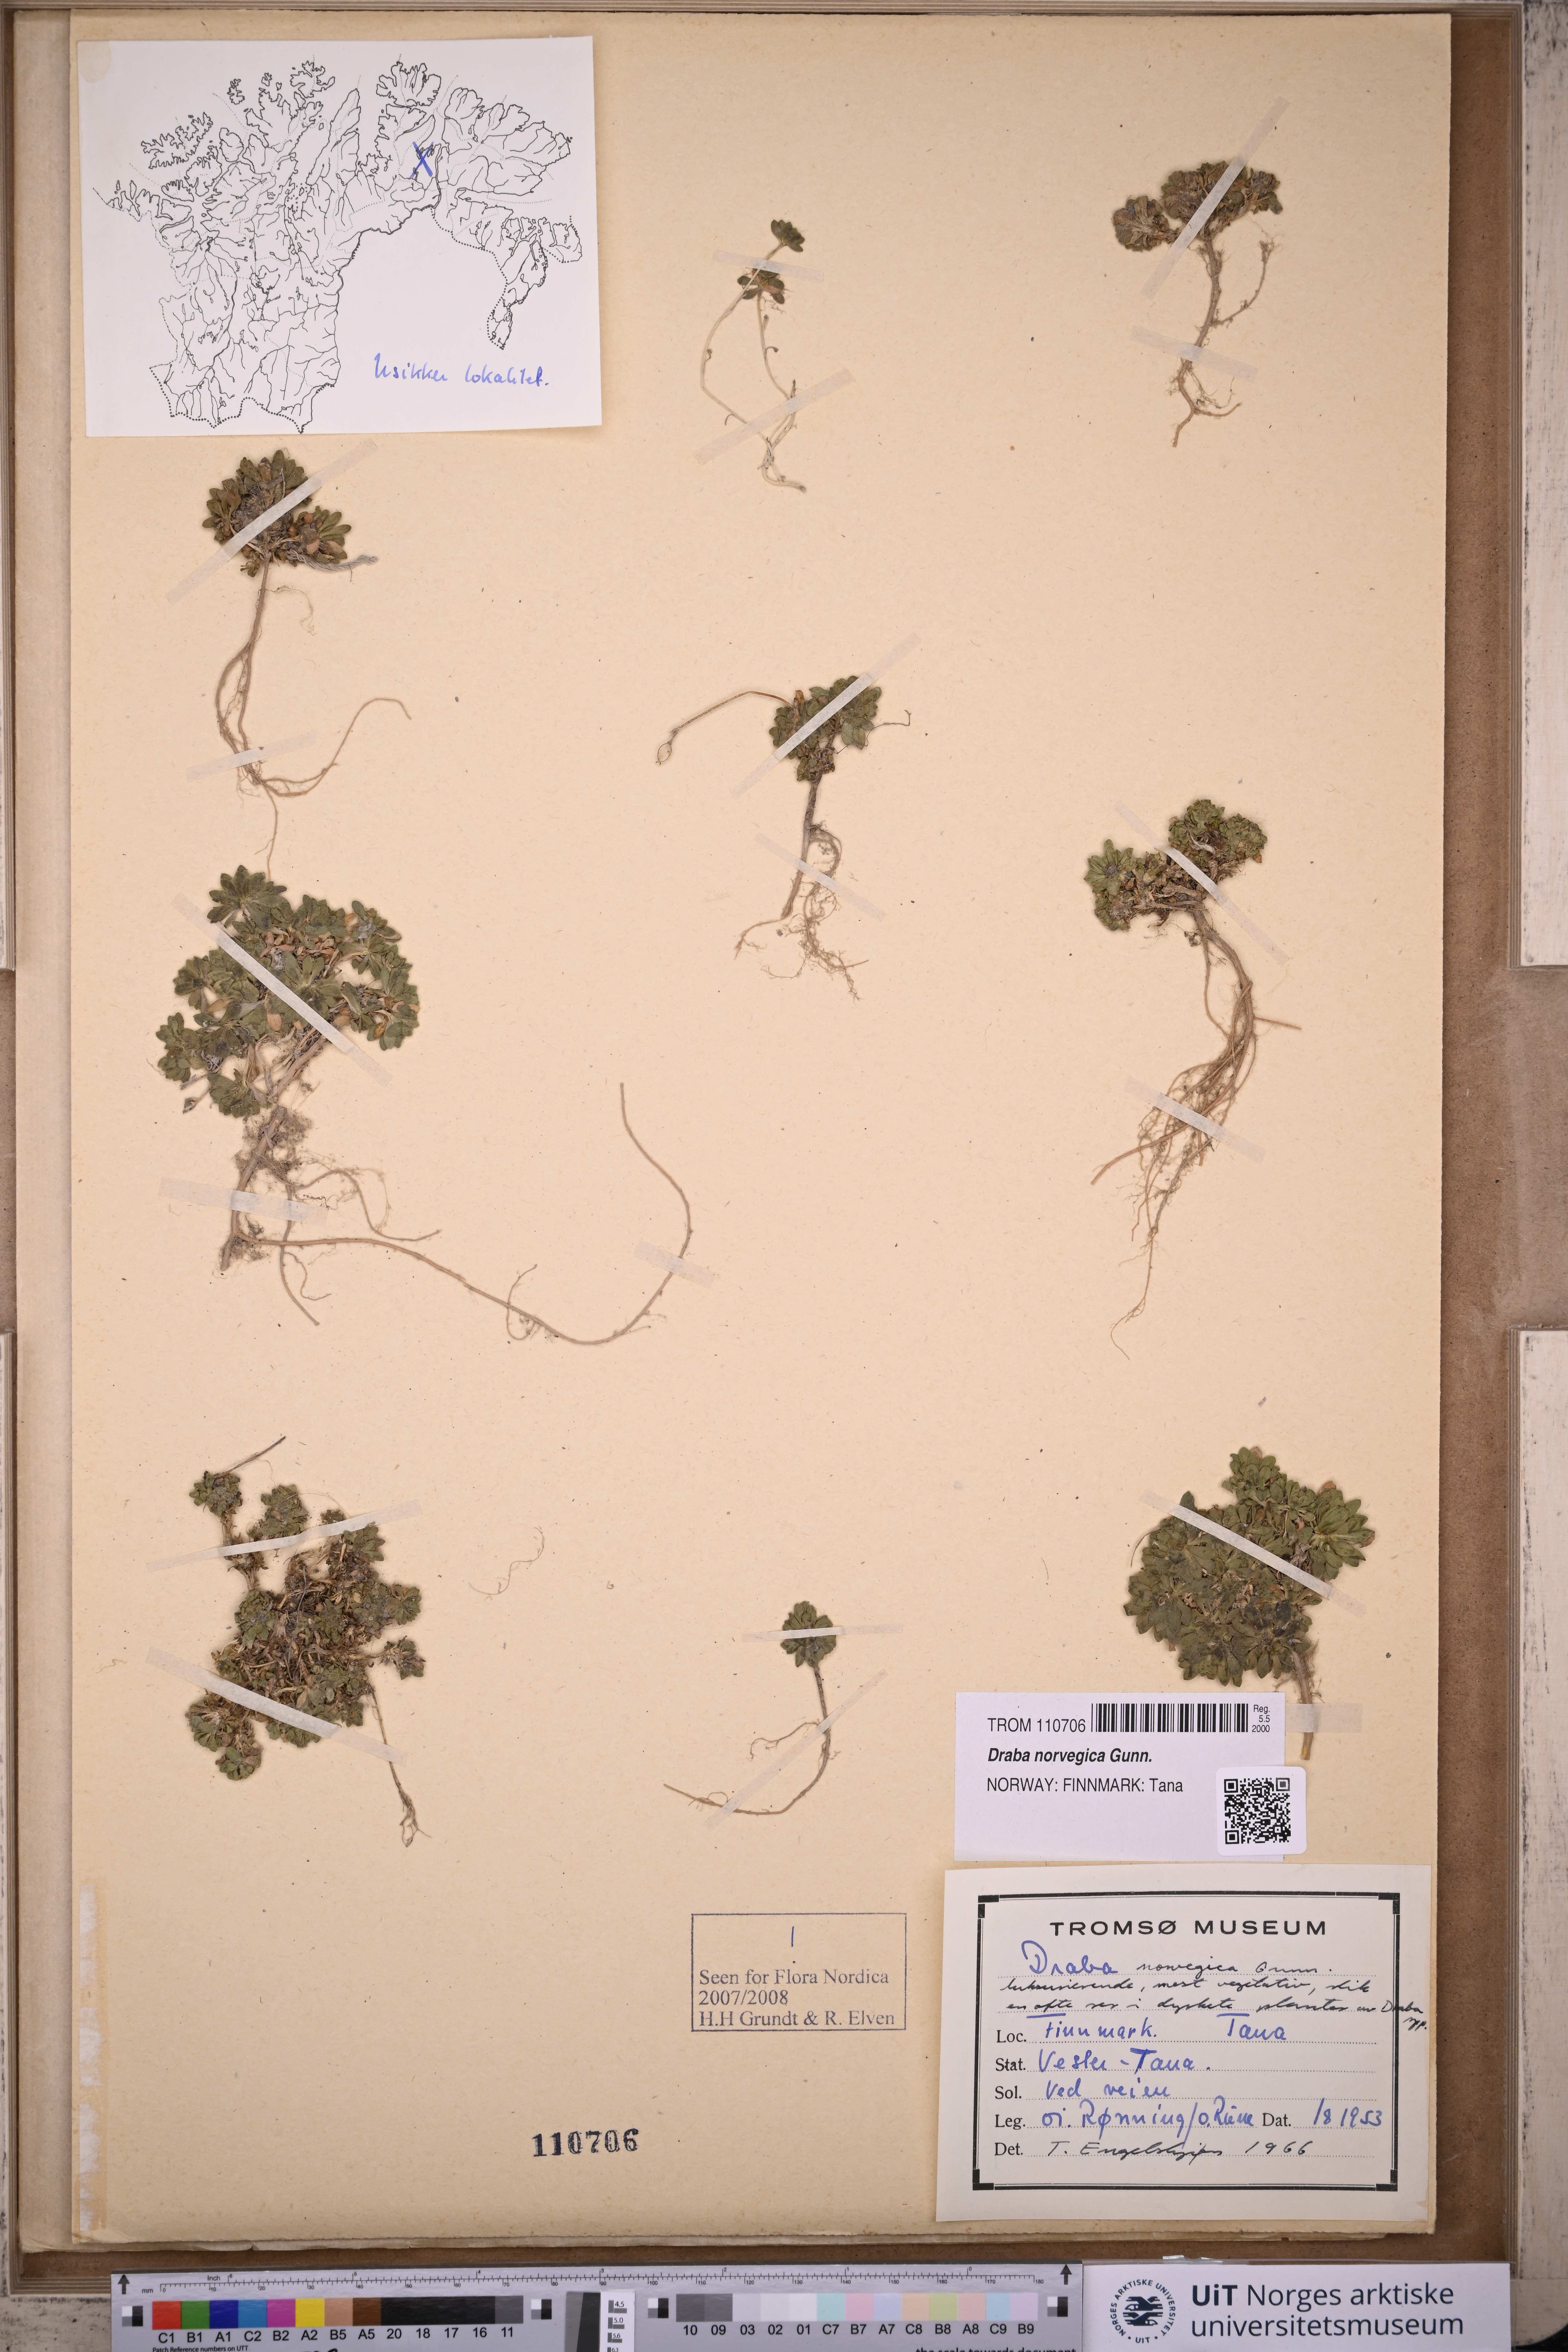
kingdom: Plantae
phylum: Tracheophyta
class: Magnoliopsida
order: Brassicales
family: Brassicaceae
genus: Draba
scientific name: Draba norvegica
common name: Rock whitlowgrass
